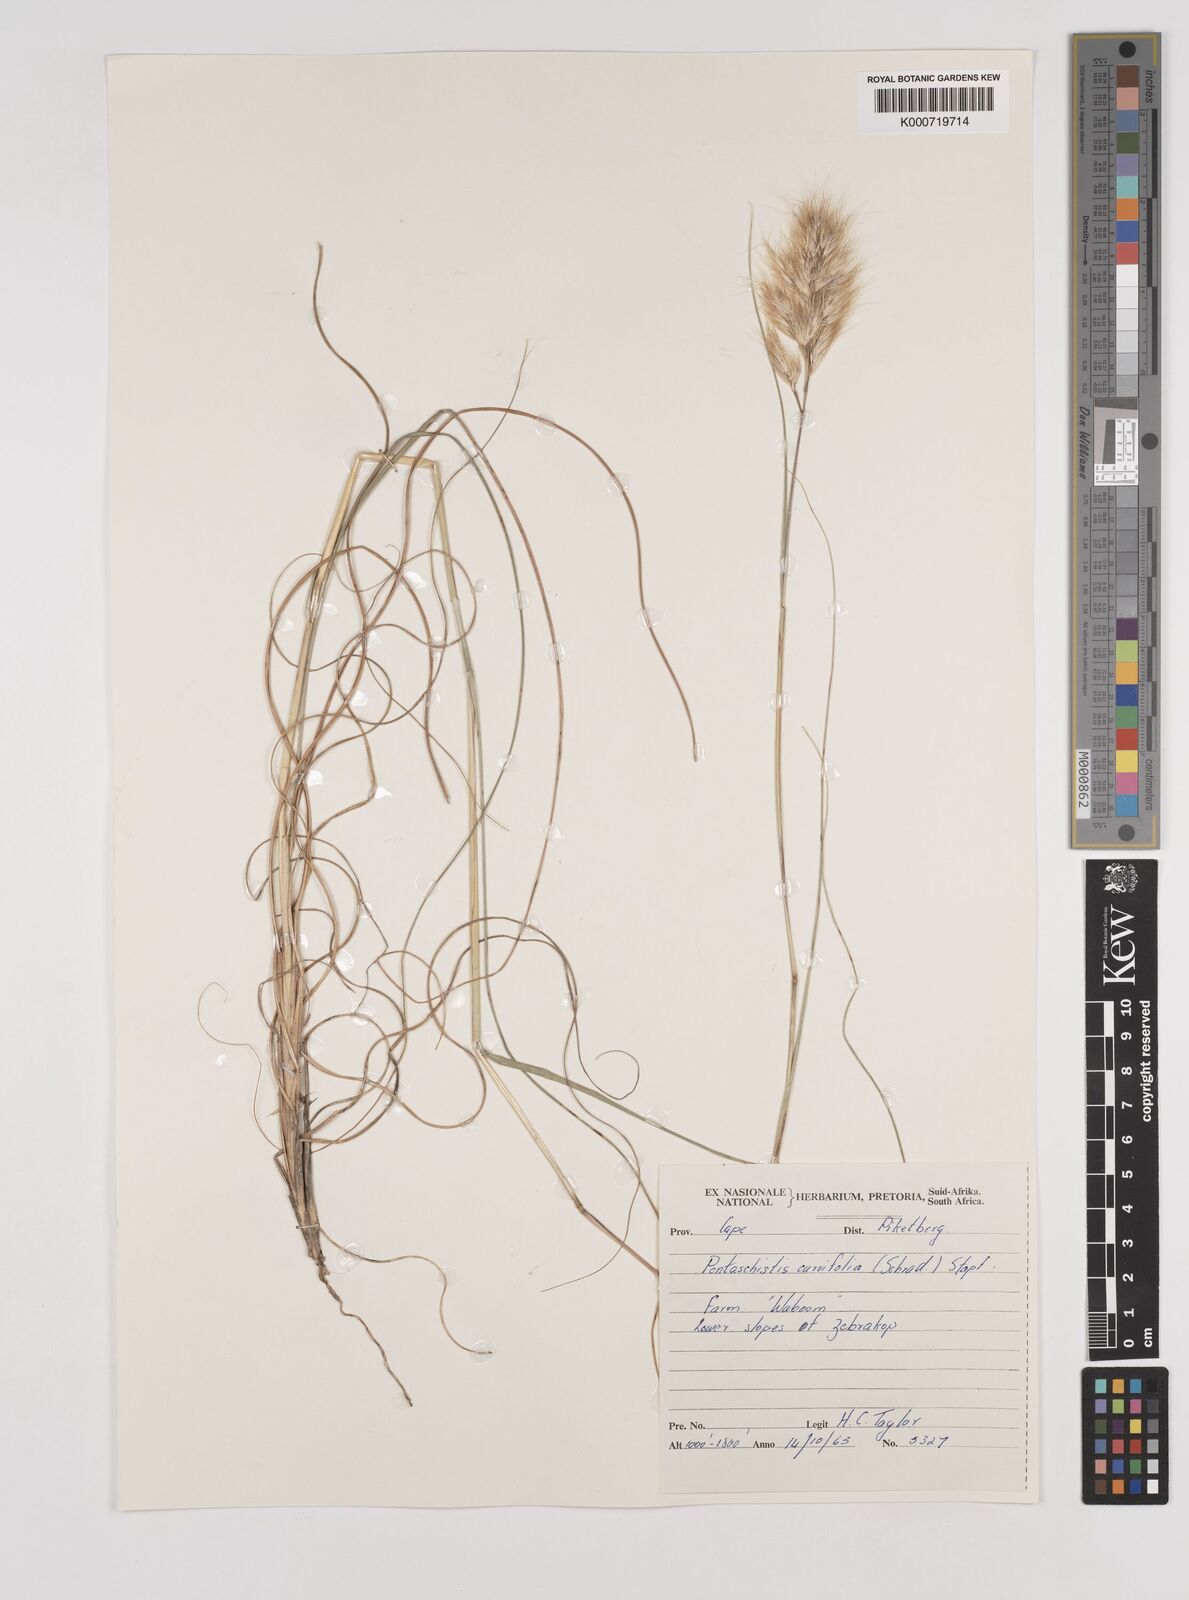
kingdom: Plantae
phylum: Tracheophyta
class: Liliopsida
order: Poales
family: Poaceae
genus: Pentameris
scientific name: Pentameris curvifolia
